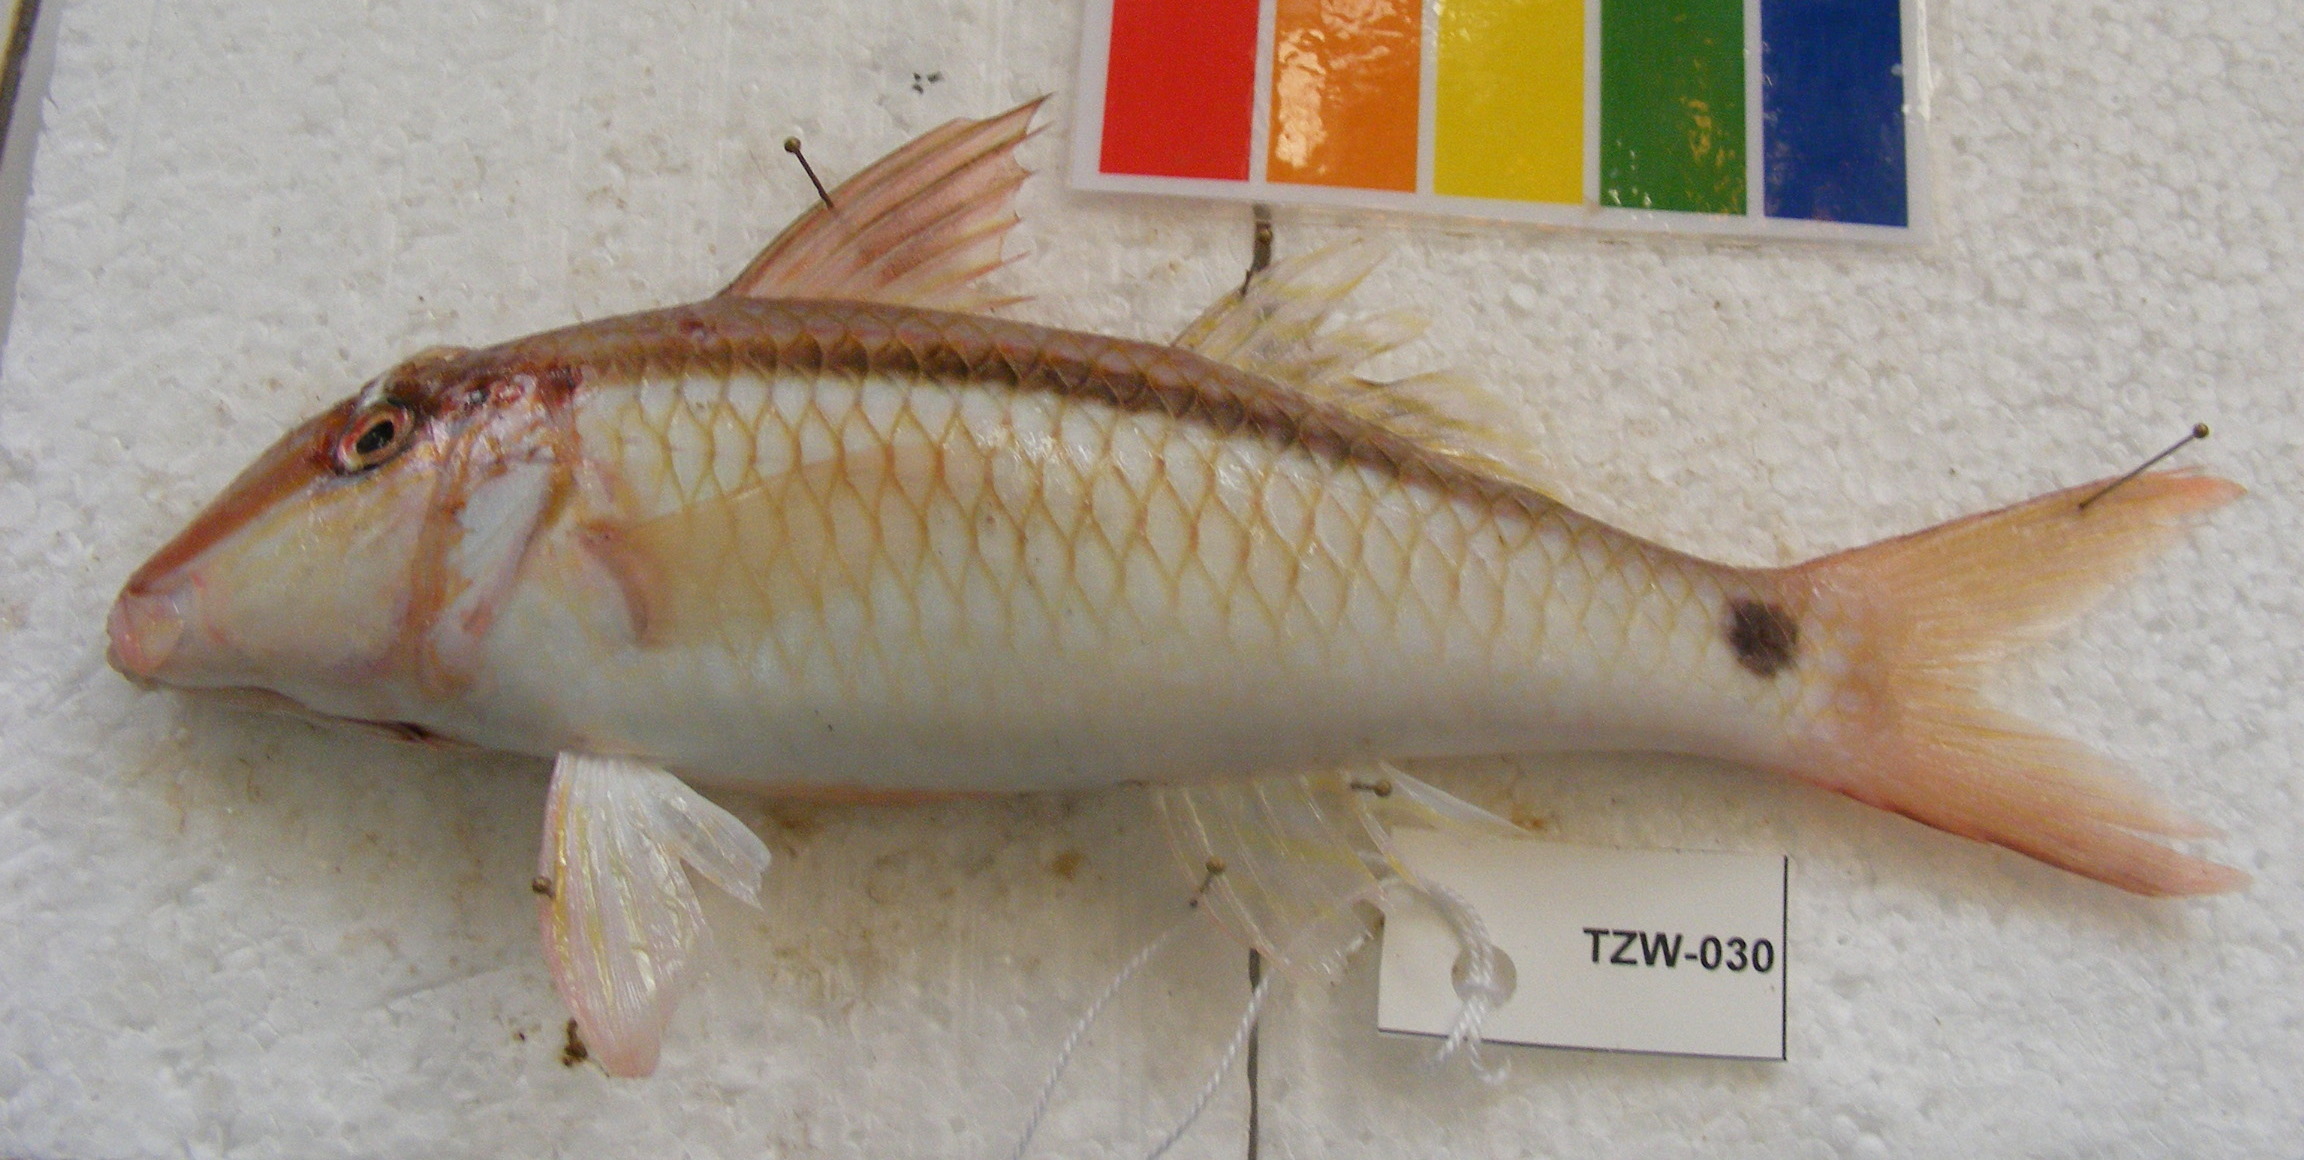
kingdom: Animalia
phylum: Chordata
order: Perciformes
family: Mullidae
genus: Parupeneus
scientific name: Parupeneus barberinus
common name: Dash-and-dot goatfish
